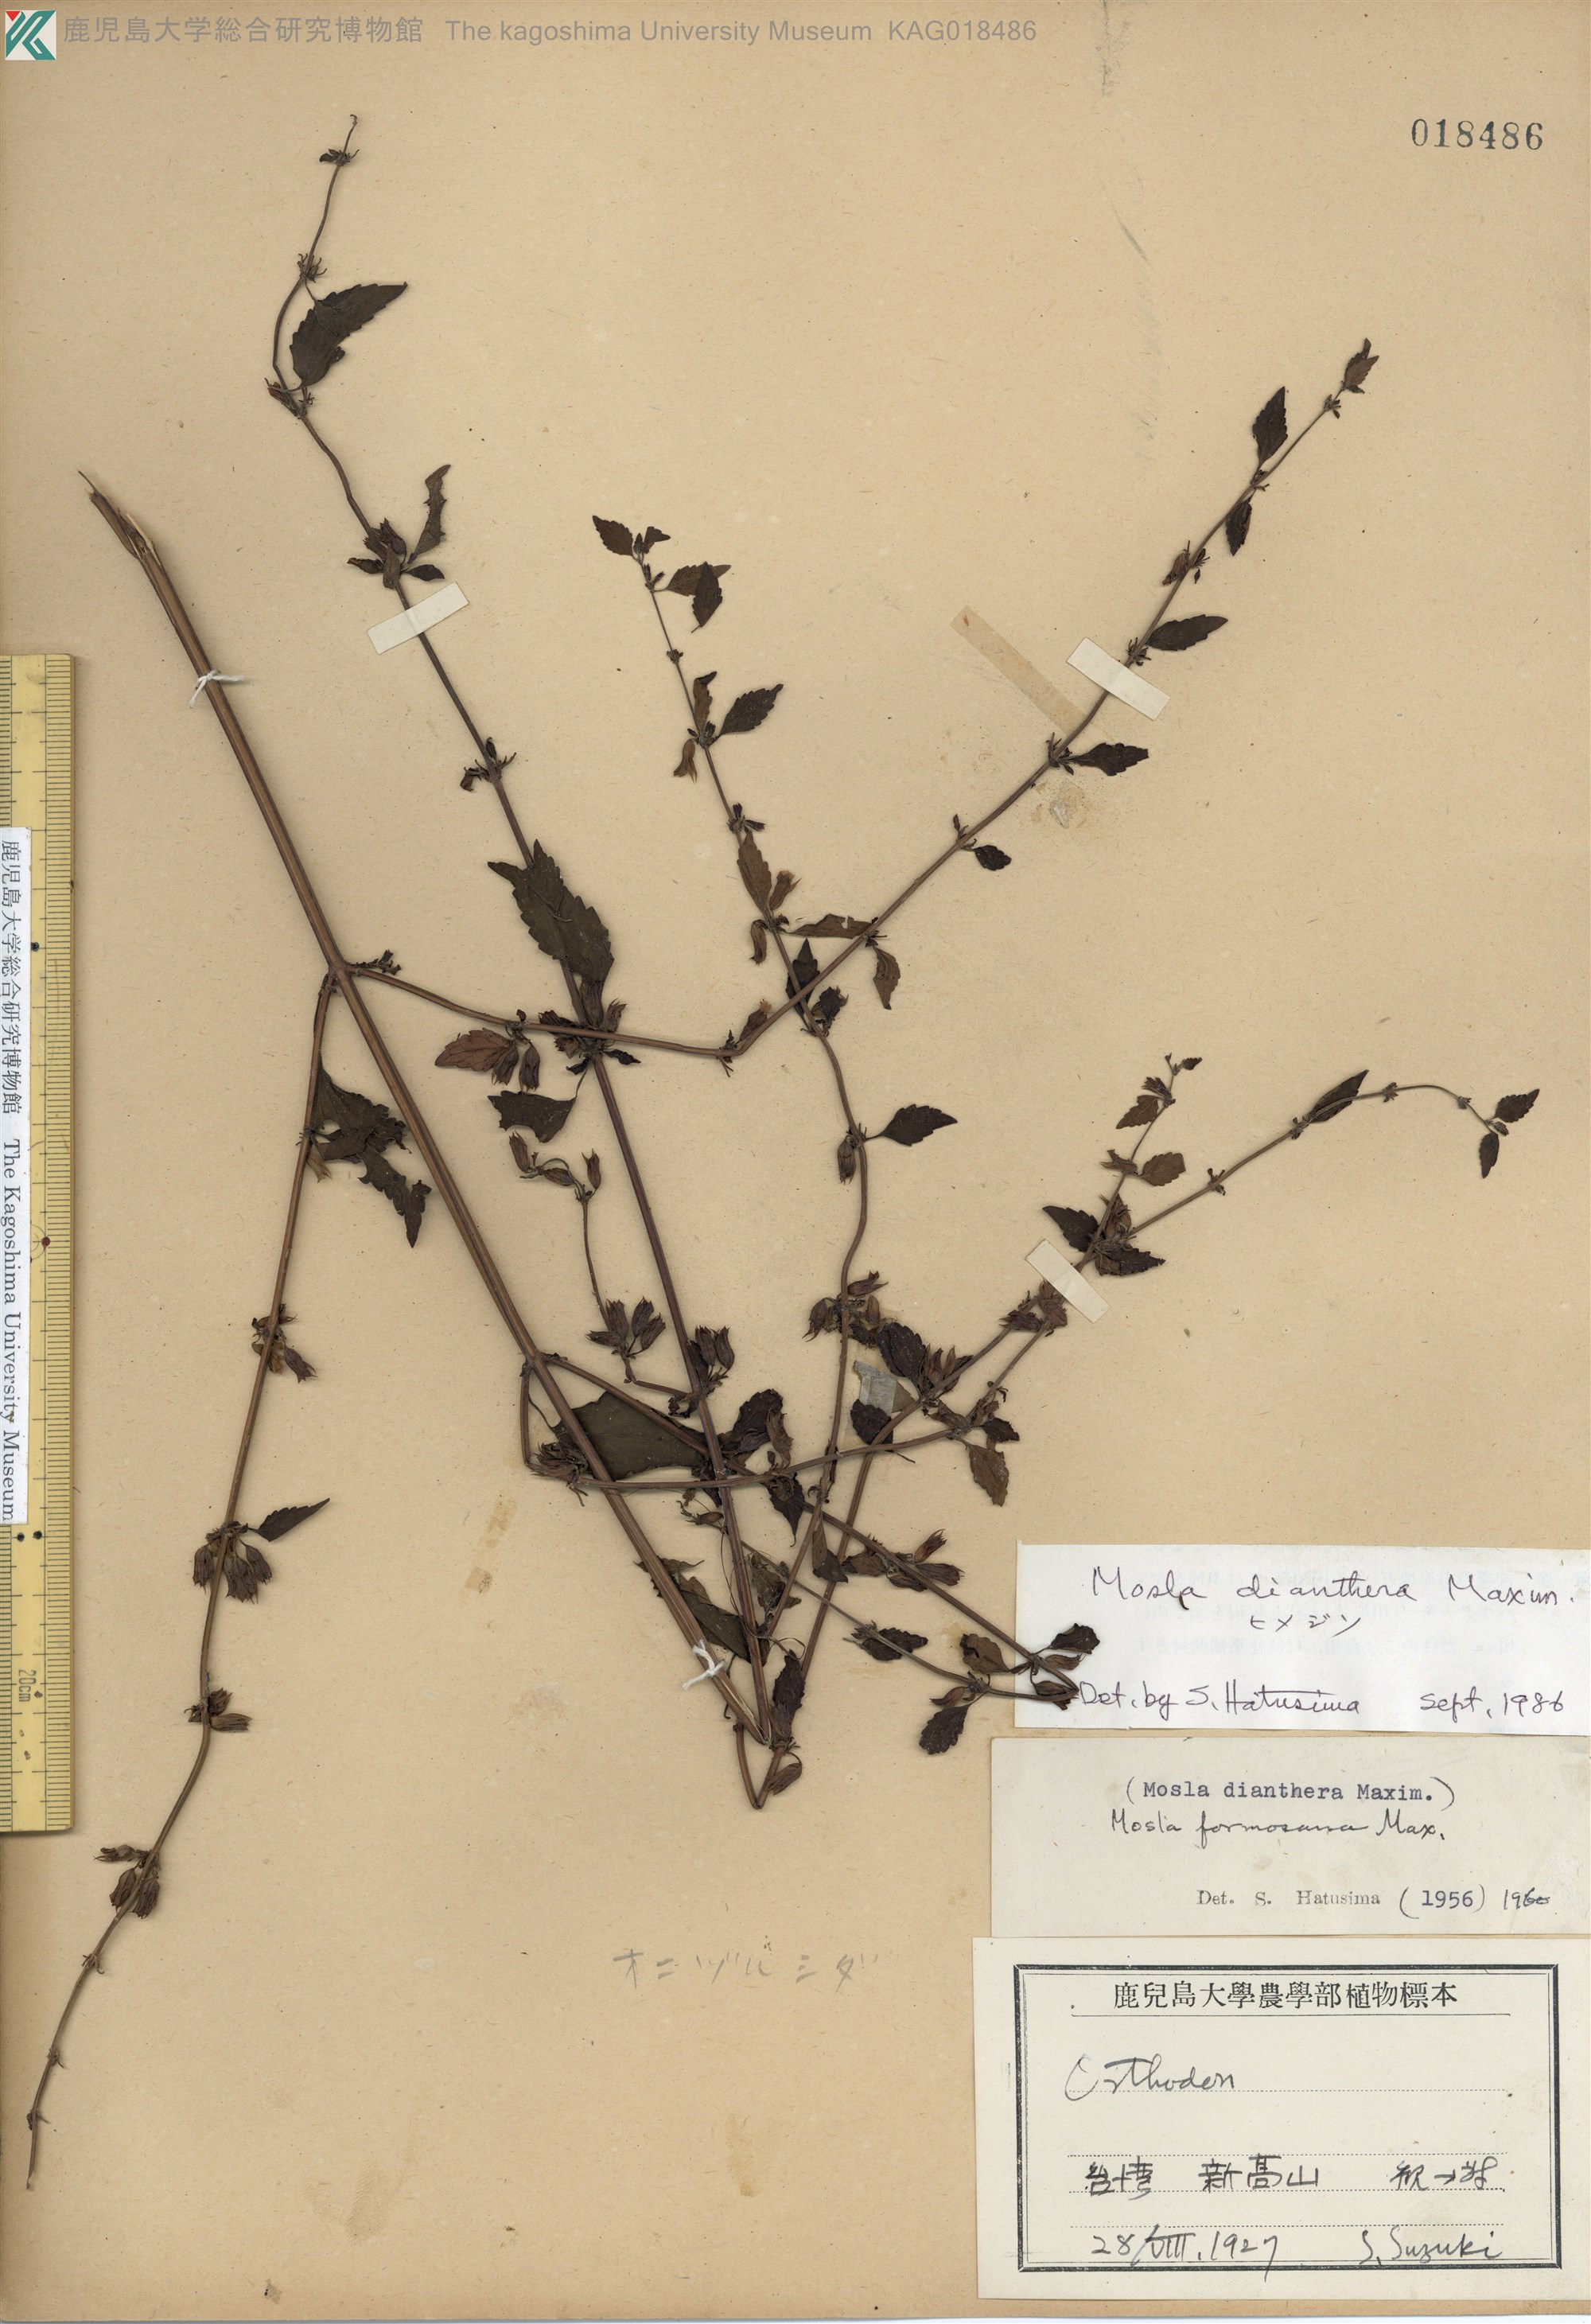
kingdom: Plantae
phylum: Tracheophyta
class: Magnoliopsida
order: Lamiales
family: Lamiaceae
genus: Mosla
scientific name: Mosla dianthera
